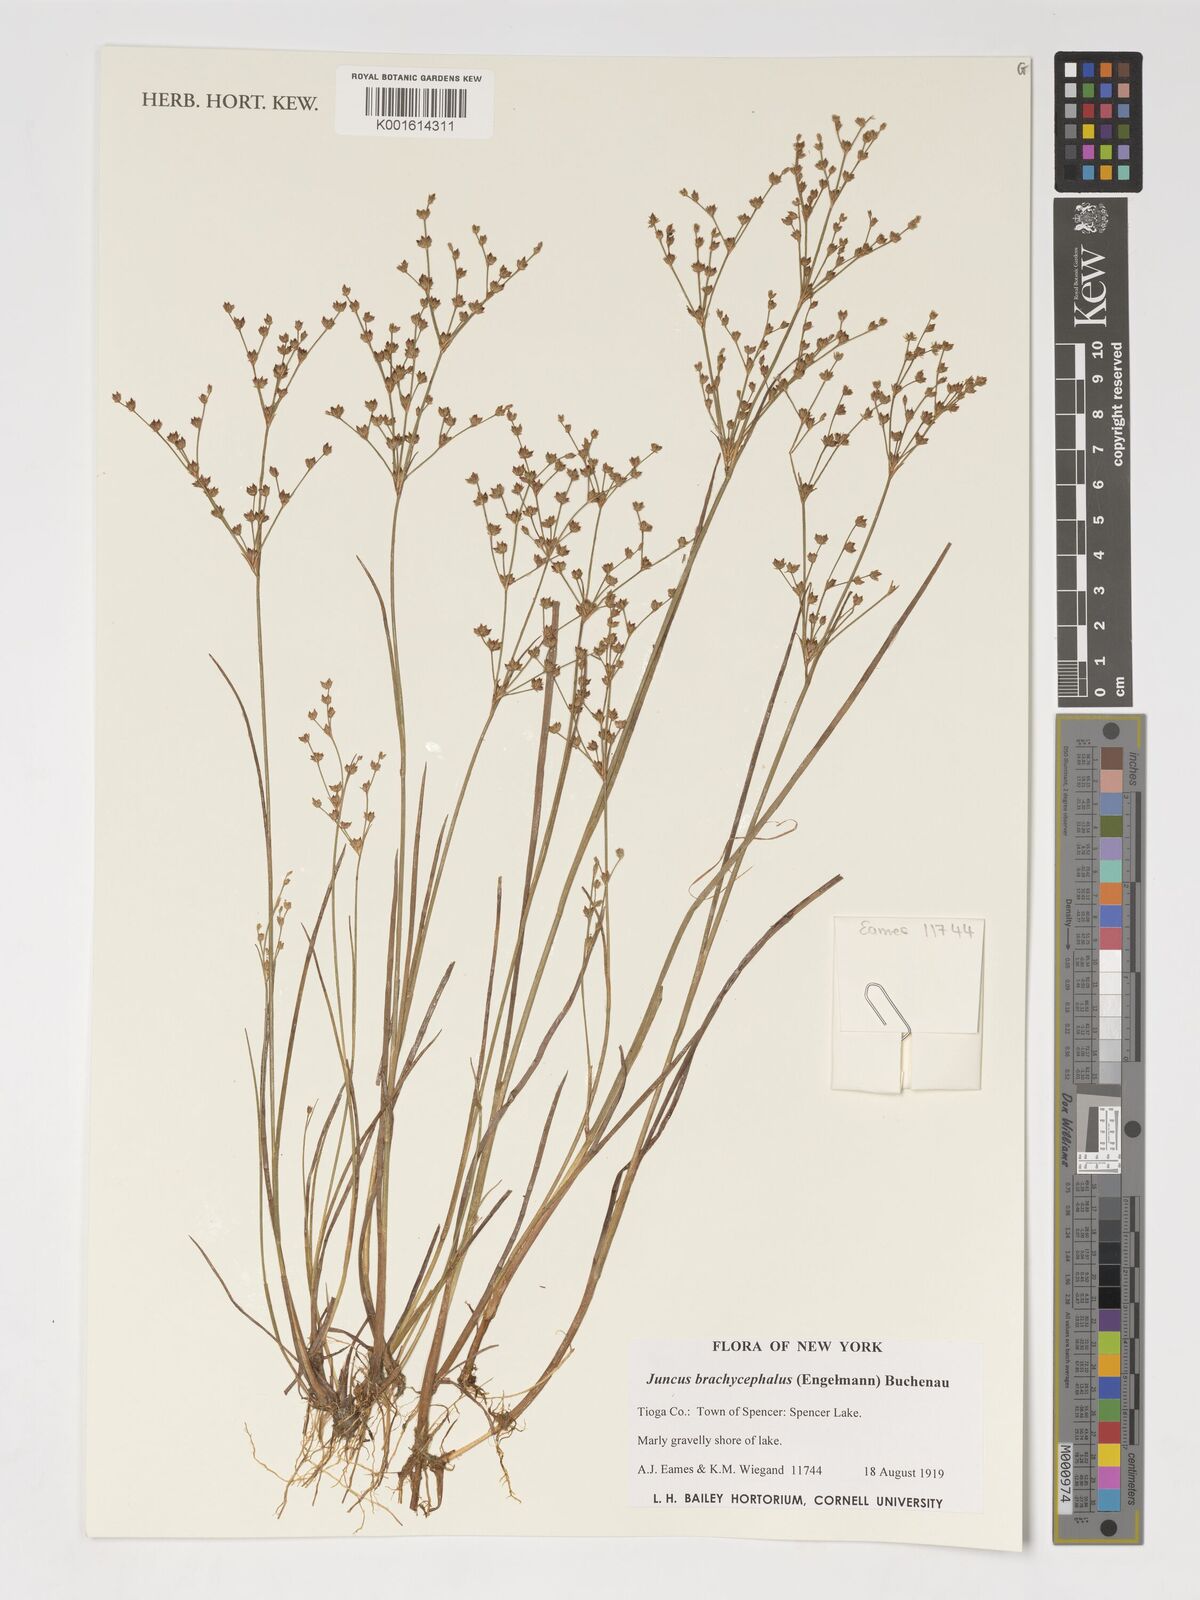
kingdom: Plantae
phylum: Tracheophyta
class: Liliopsida
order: Poales
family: Juncaceae
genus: Juncus
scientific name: Juncus brachycephalus
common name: Short-headed rush
